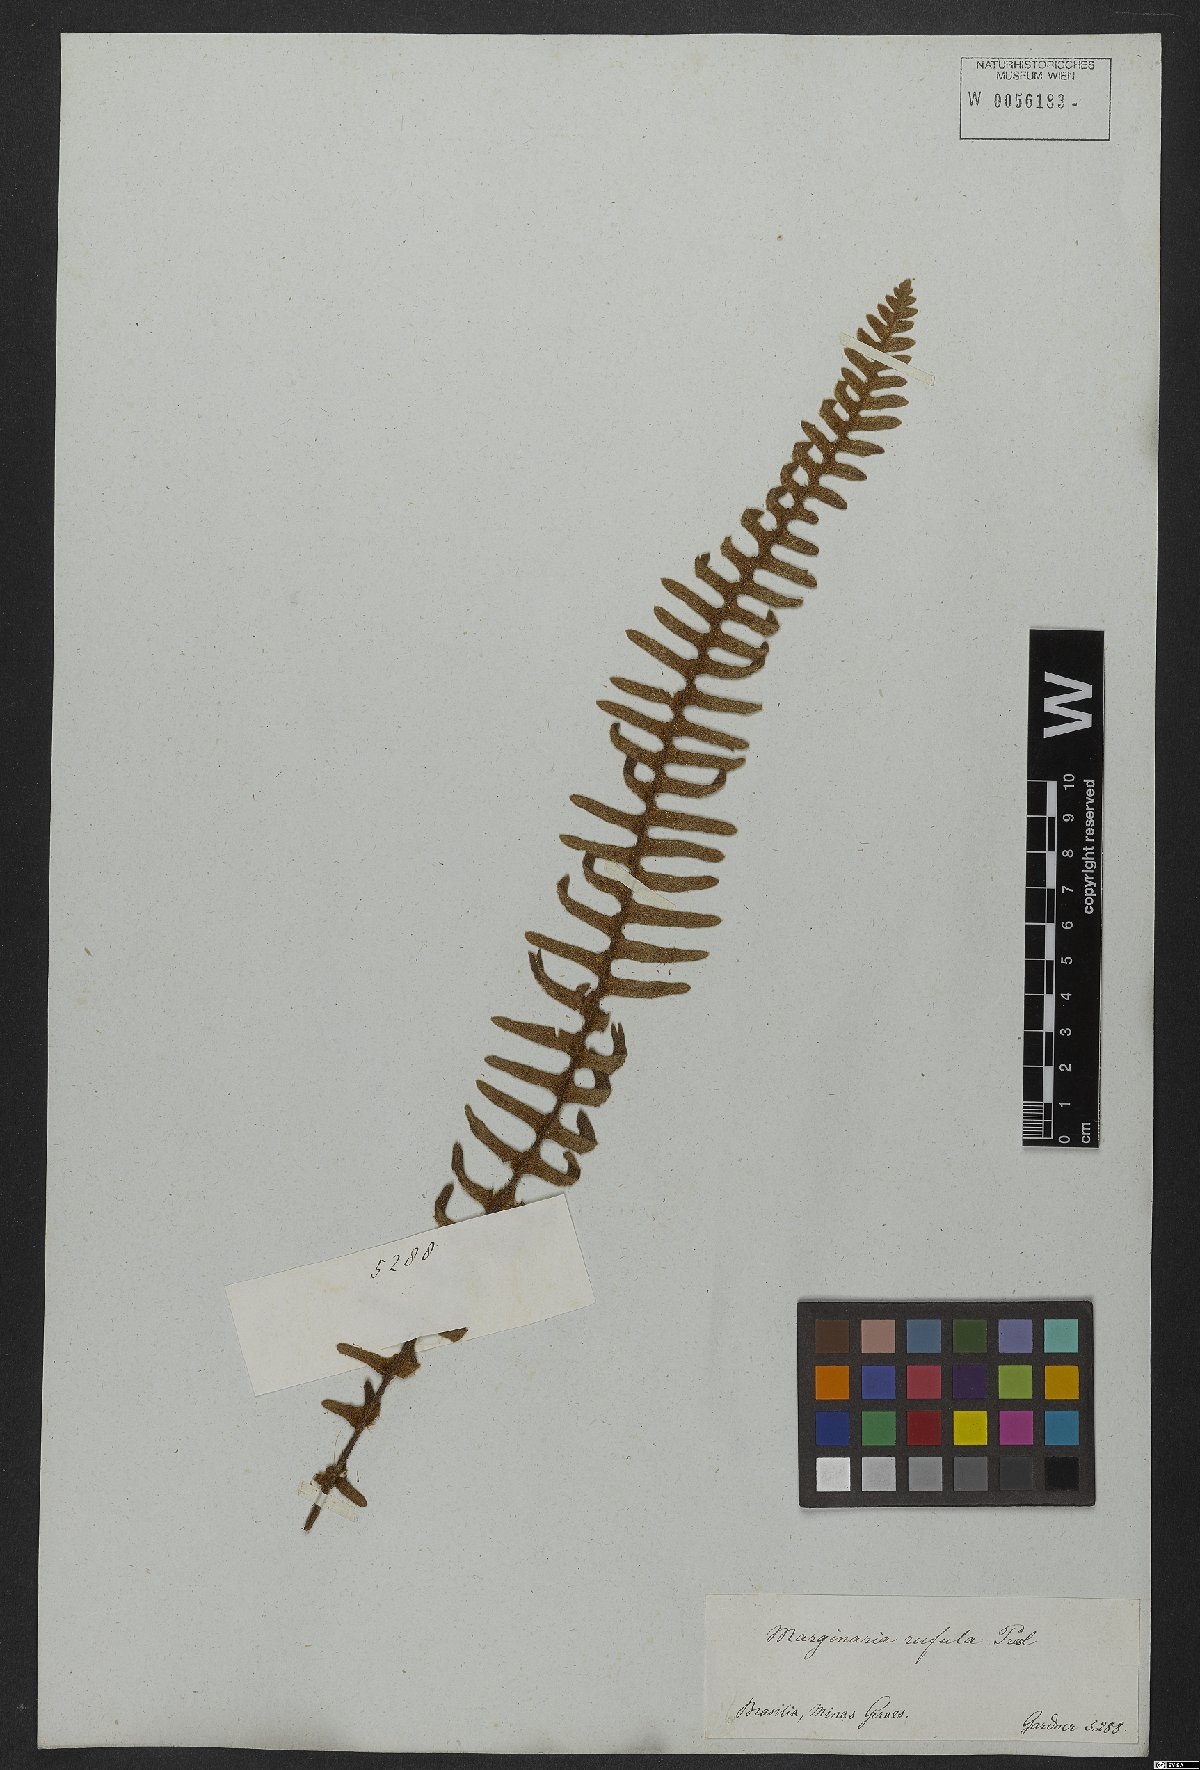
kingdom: Plantae
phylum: Tracheophyta
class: Polypodiopsida
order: Polypodiales
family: Polypodiaceae
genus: Pleopeltis
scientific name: Pleopeltis lepidopteris
